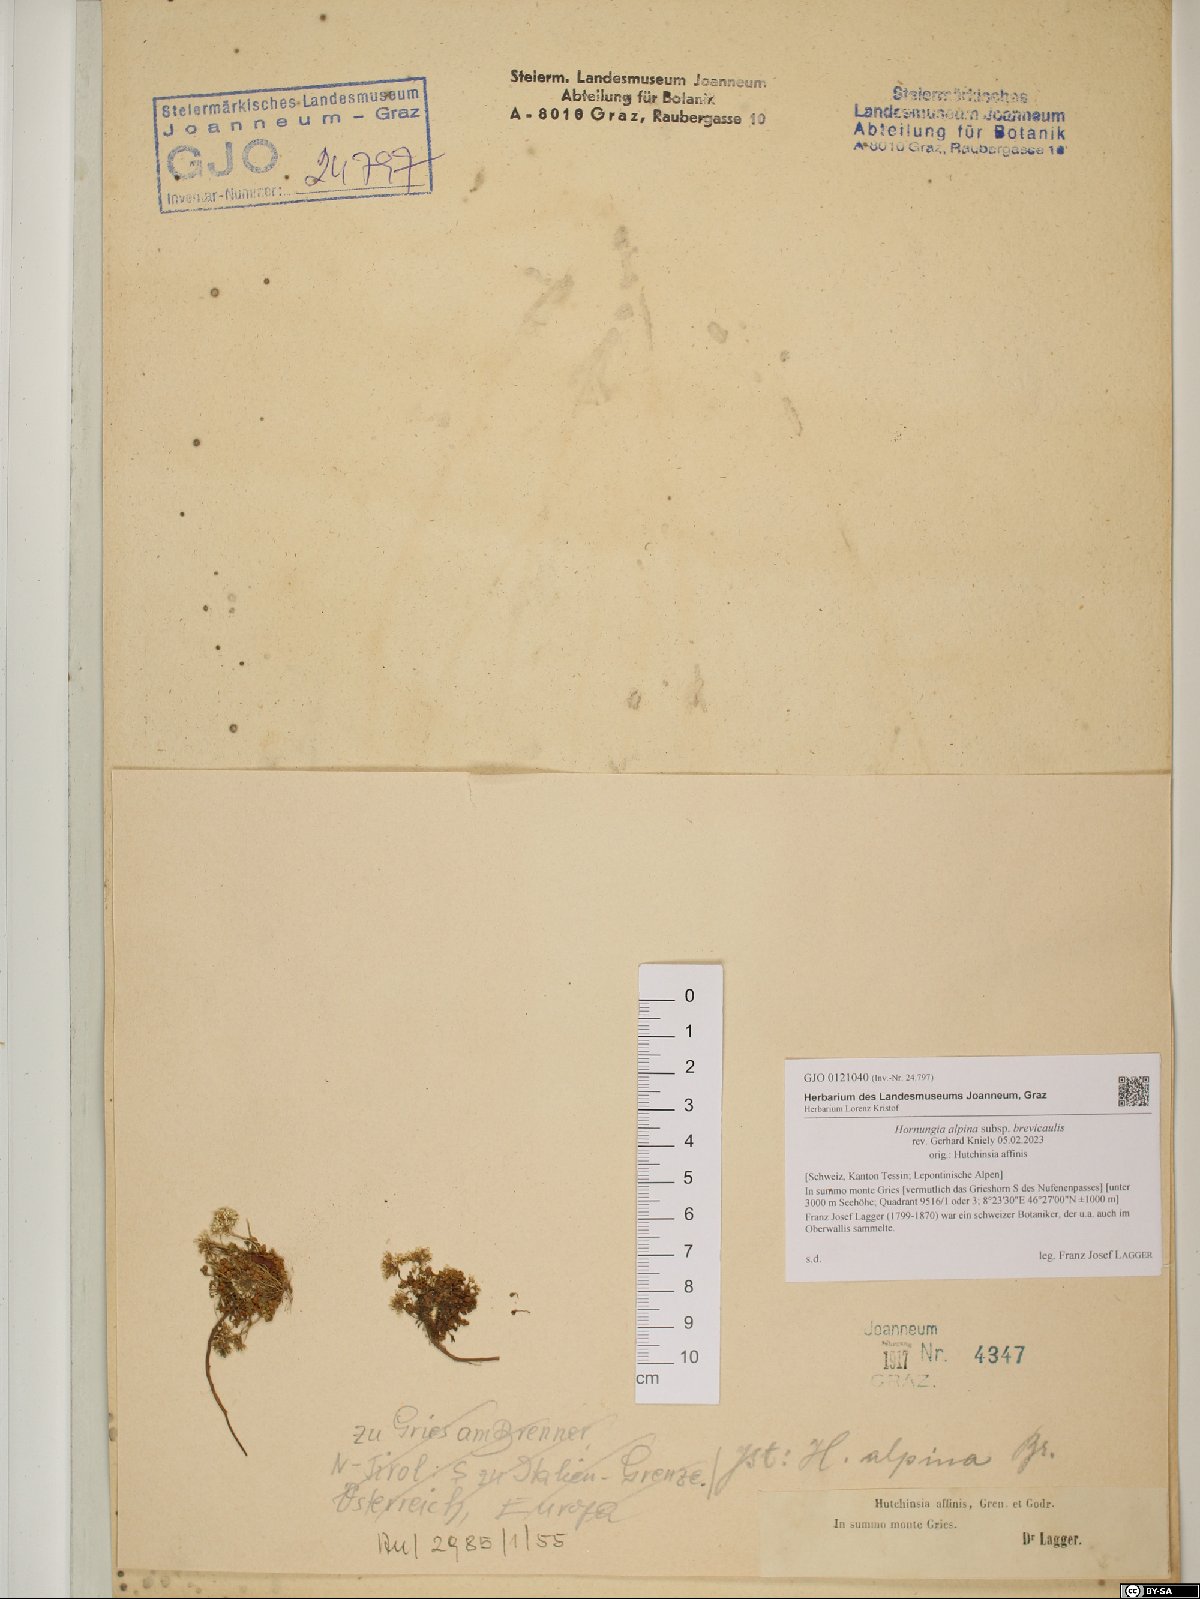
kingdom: Plantae
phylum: Tracheophyta
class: Magnoliopsida
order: Brassicales
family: Brassicaceae
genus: Hornungia
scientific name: Hornungia alpina
